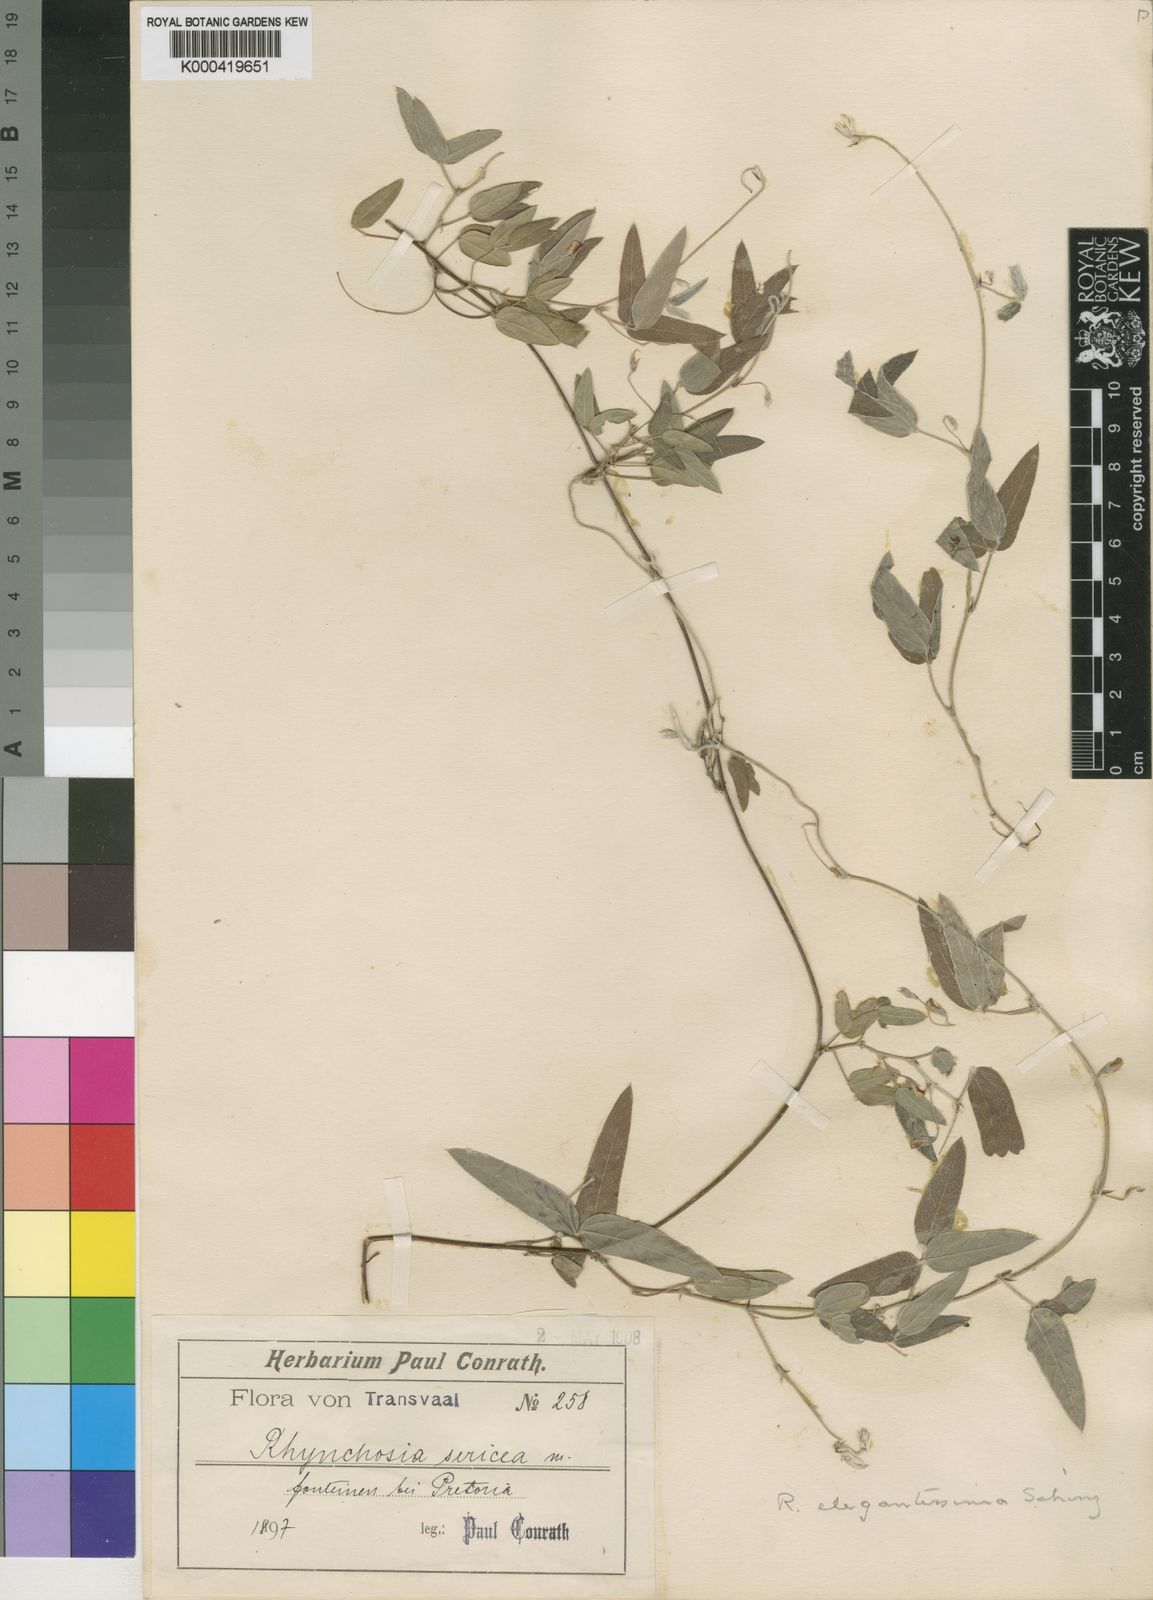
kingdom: Plantae
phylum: Tracheophyta
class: Magnoliopsida
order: Fabales
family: Fabaceae
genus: Rhynchosia
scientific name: Rhynchosia totta
